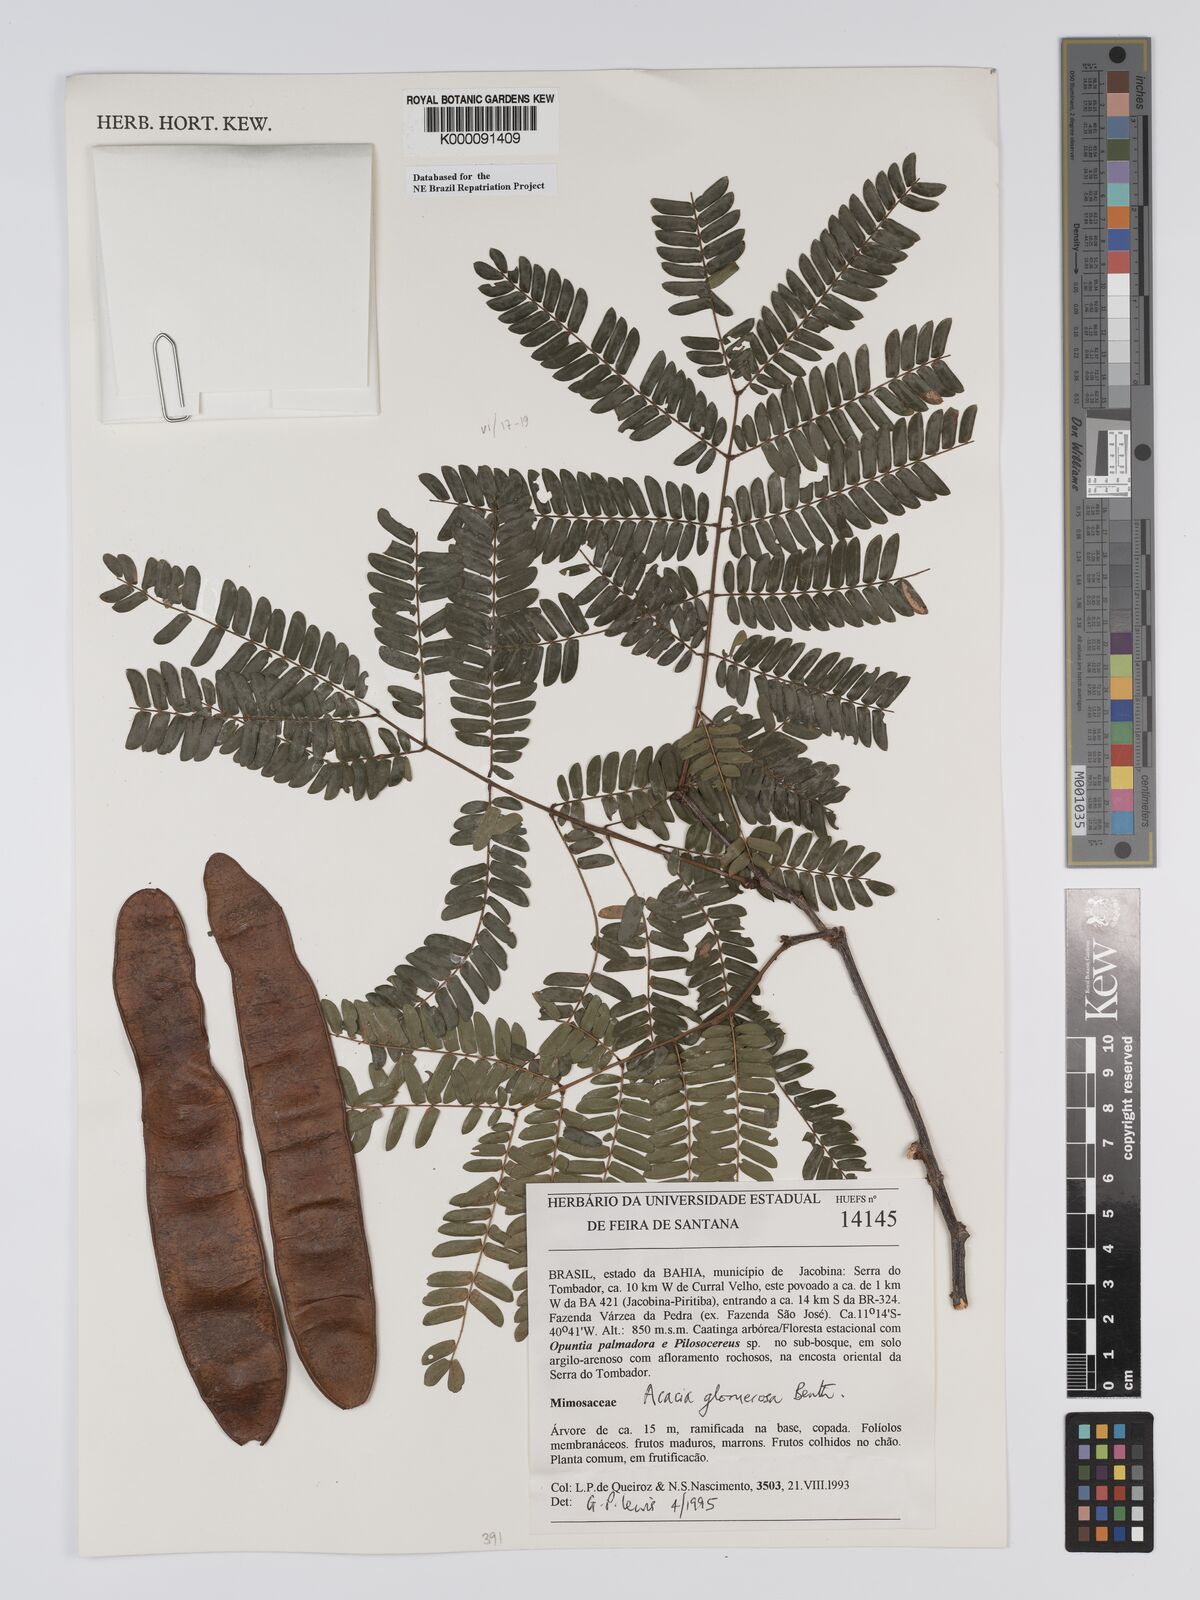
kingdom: Plantae
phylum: Tracheophyta
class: Magnoliopsida
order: Fabales
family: Fabaceae
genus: Senegalia
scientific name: Senegalia polyphylla
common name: White-tamarind
